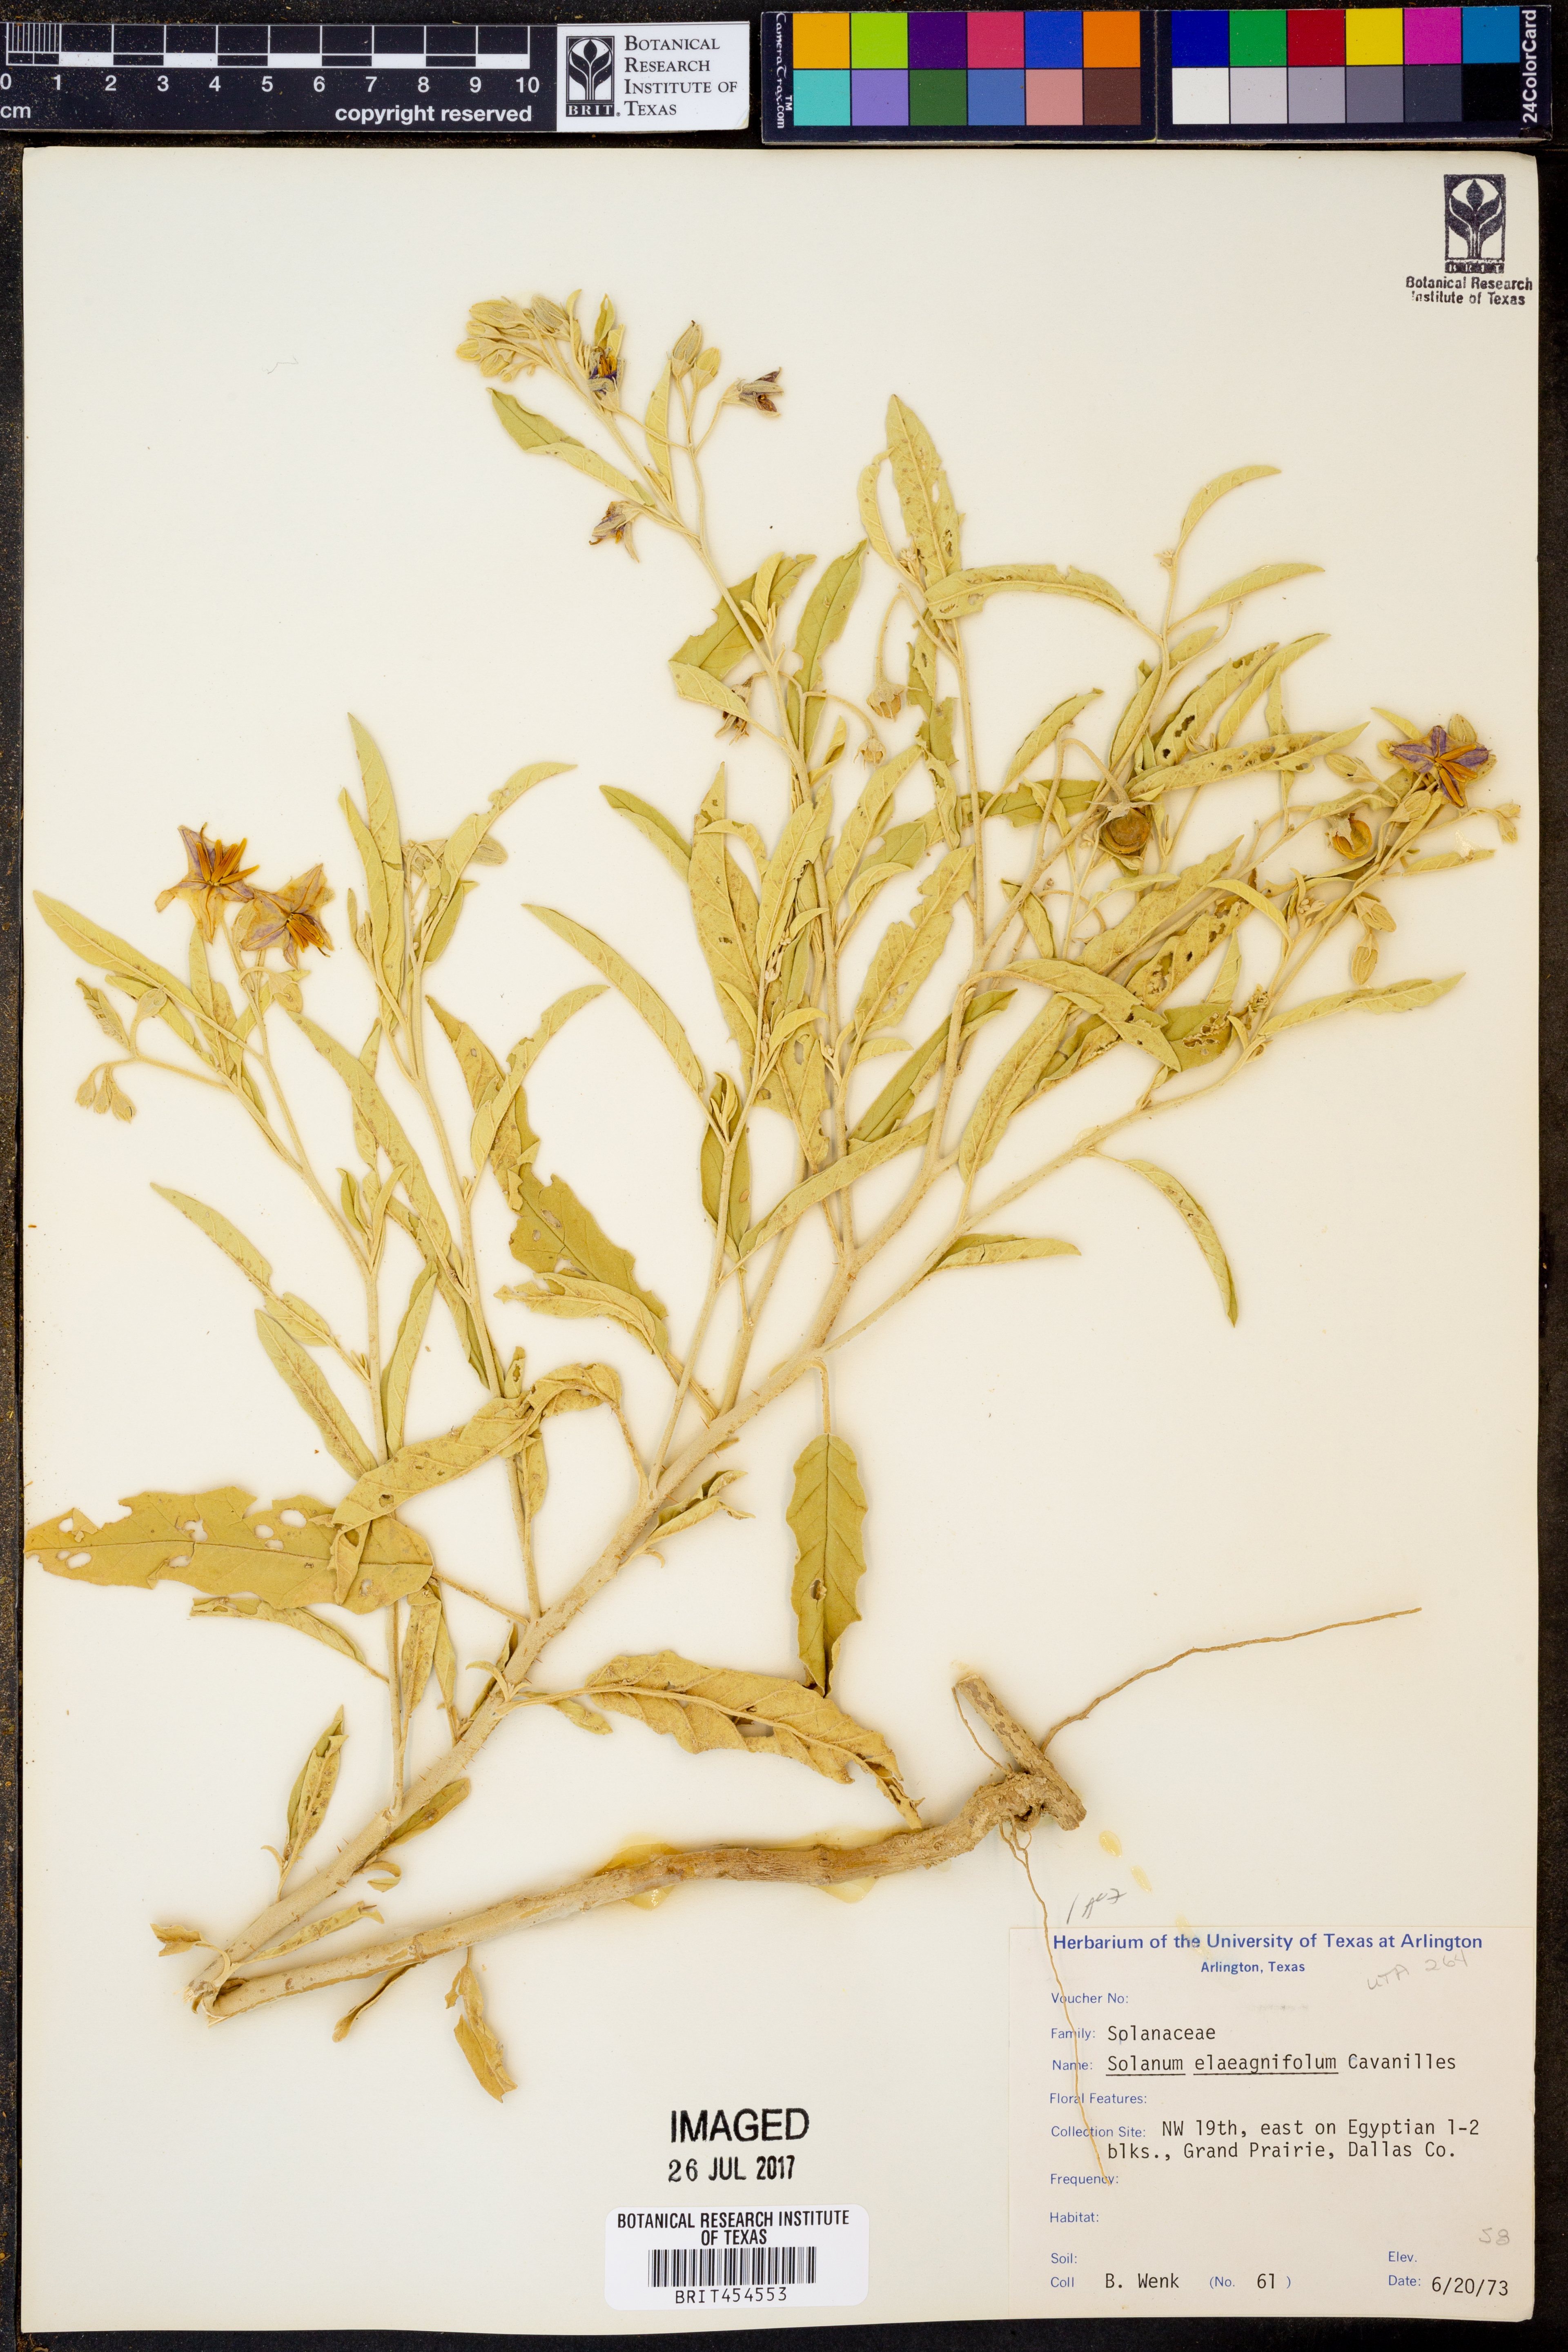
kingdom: Plantae
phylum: Tracheophyta
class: Magnoliopsida
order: Solanales
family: Solanaceae
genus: Solanum
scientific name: Solanum elaeagnifolium
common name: Silverleaf nightshade
